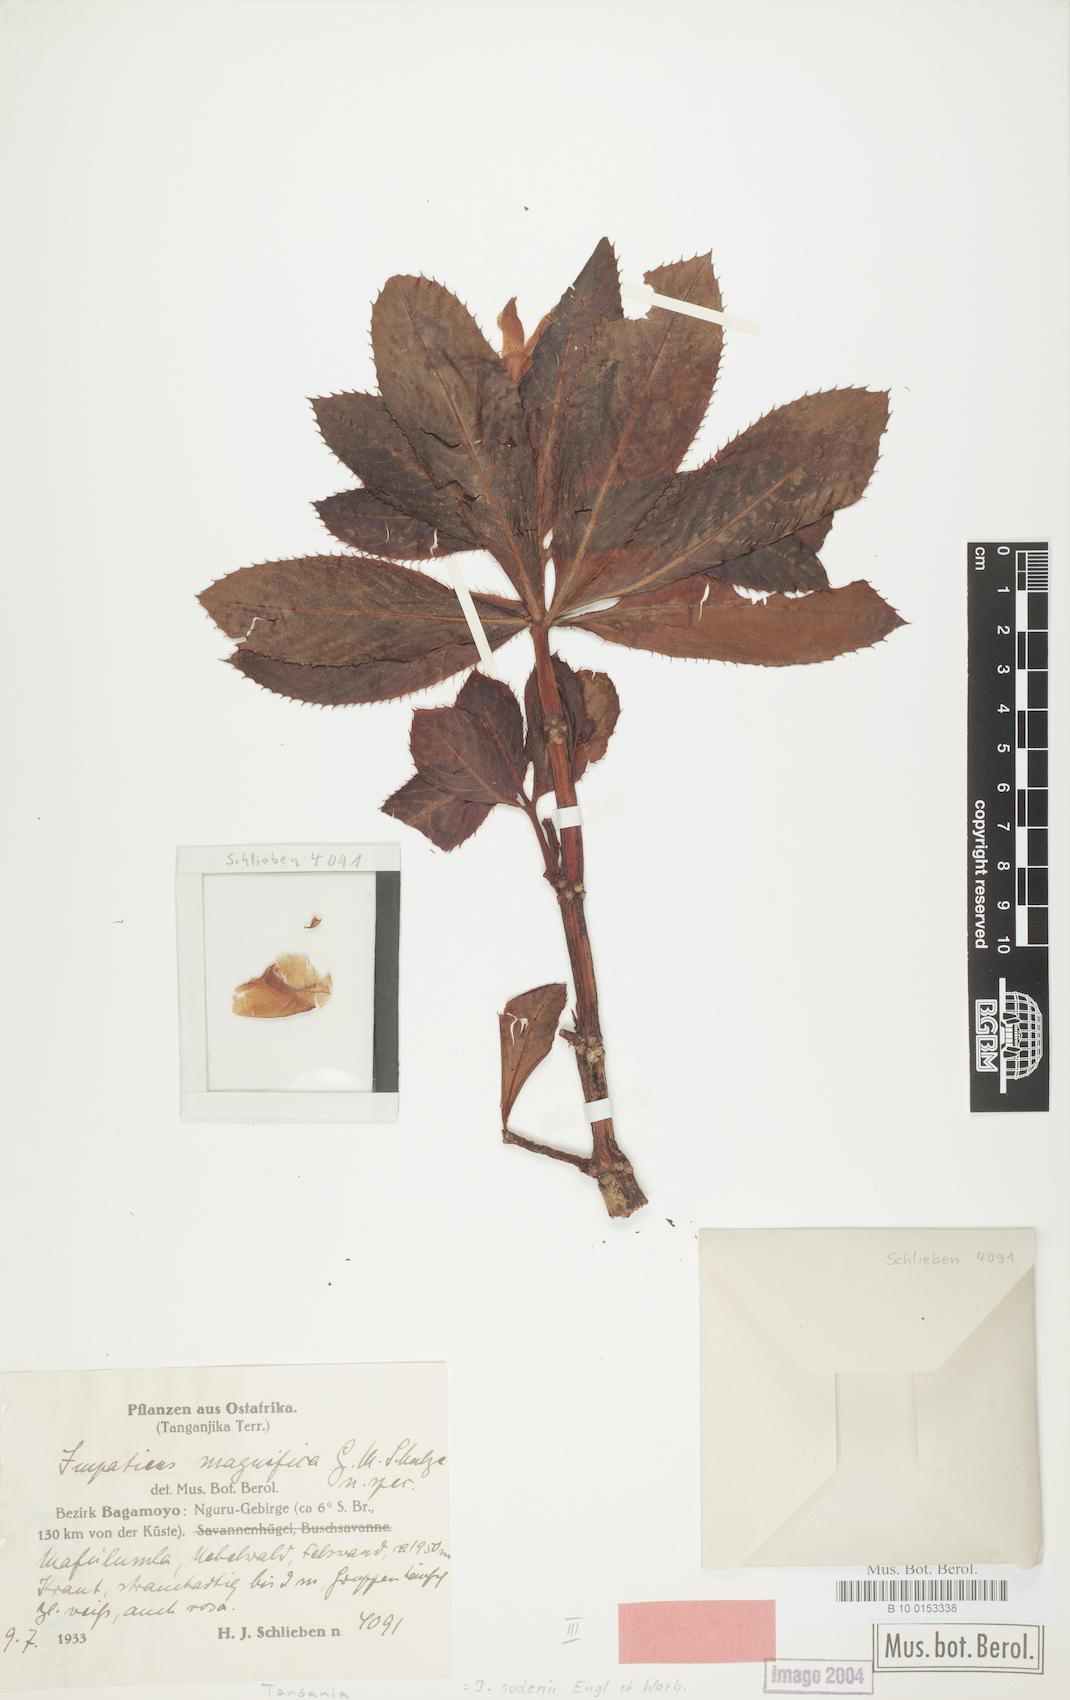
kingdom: Plantae
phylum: Tracheophyta
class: Magnoliopsida
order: Ericales
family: Balsaminaceae
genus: Impatiens
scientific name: Impatiens sodenii
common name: Oliver's touch-me-not
